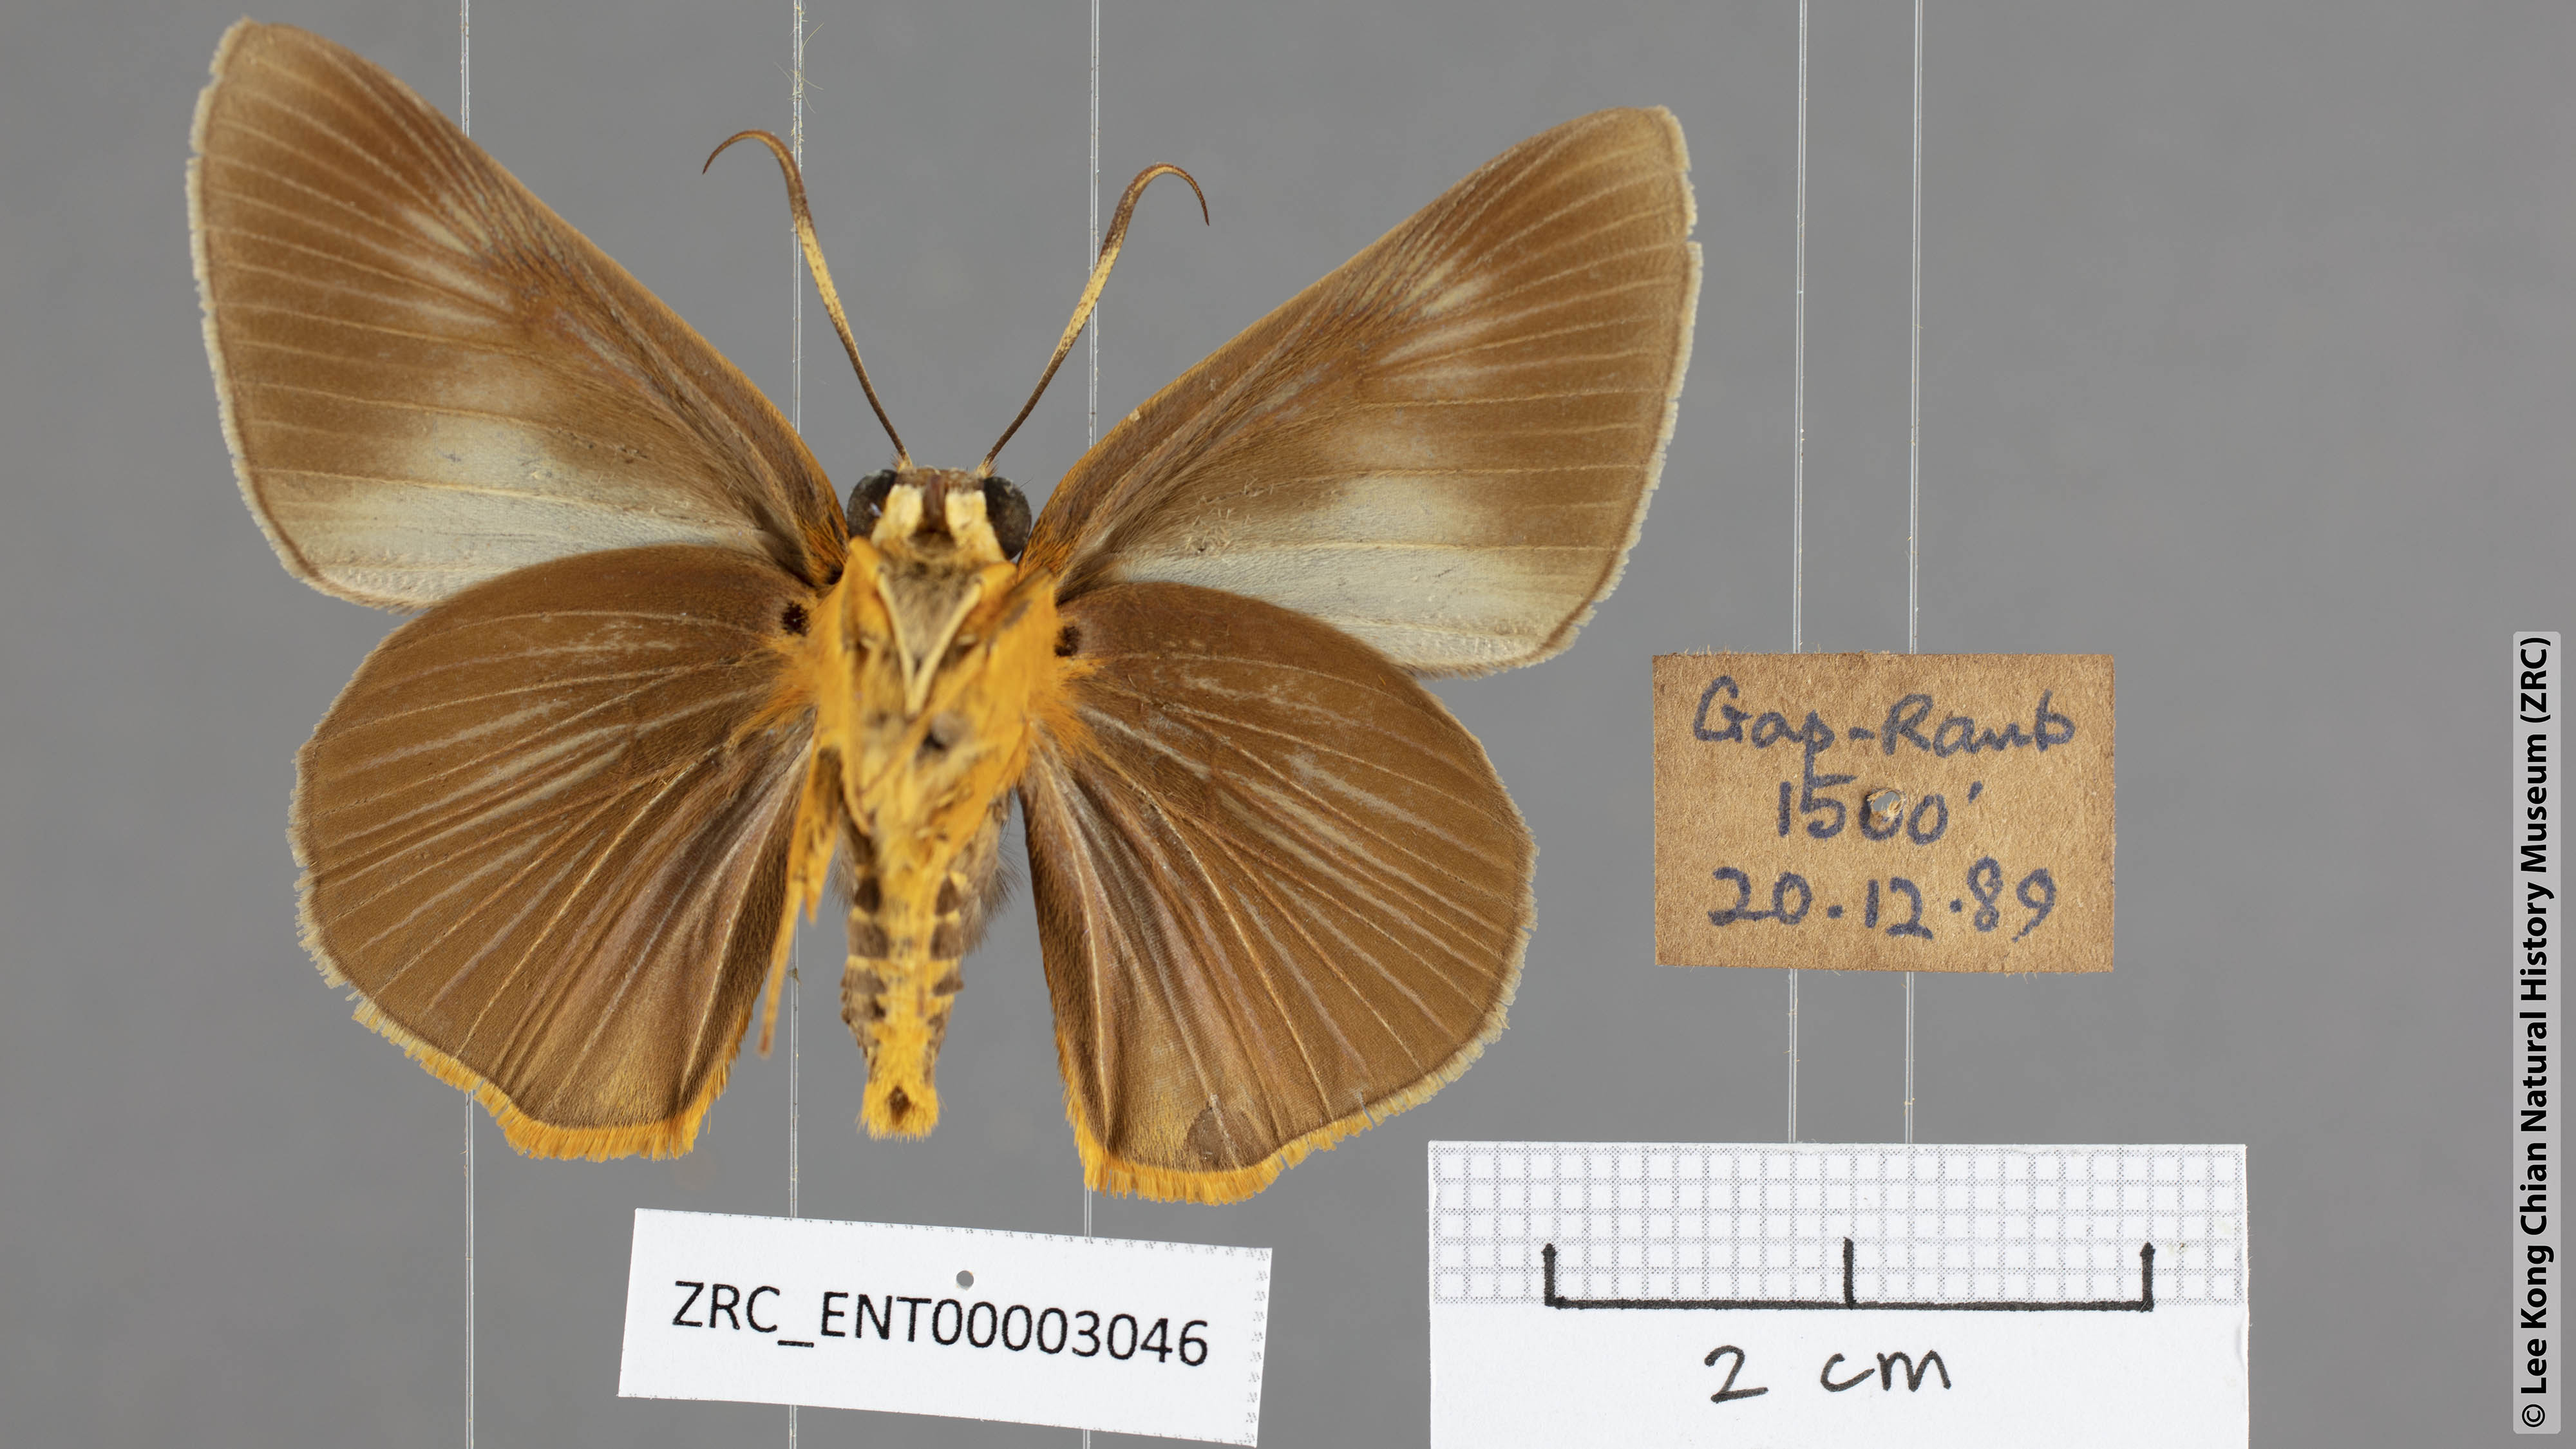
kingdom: Animalia
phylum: Arthropoda
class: Insecta
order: Lepidoptera
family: Hesperiidae
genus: Bibasis
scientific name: Bibasis Burara tuckeri
